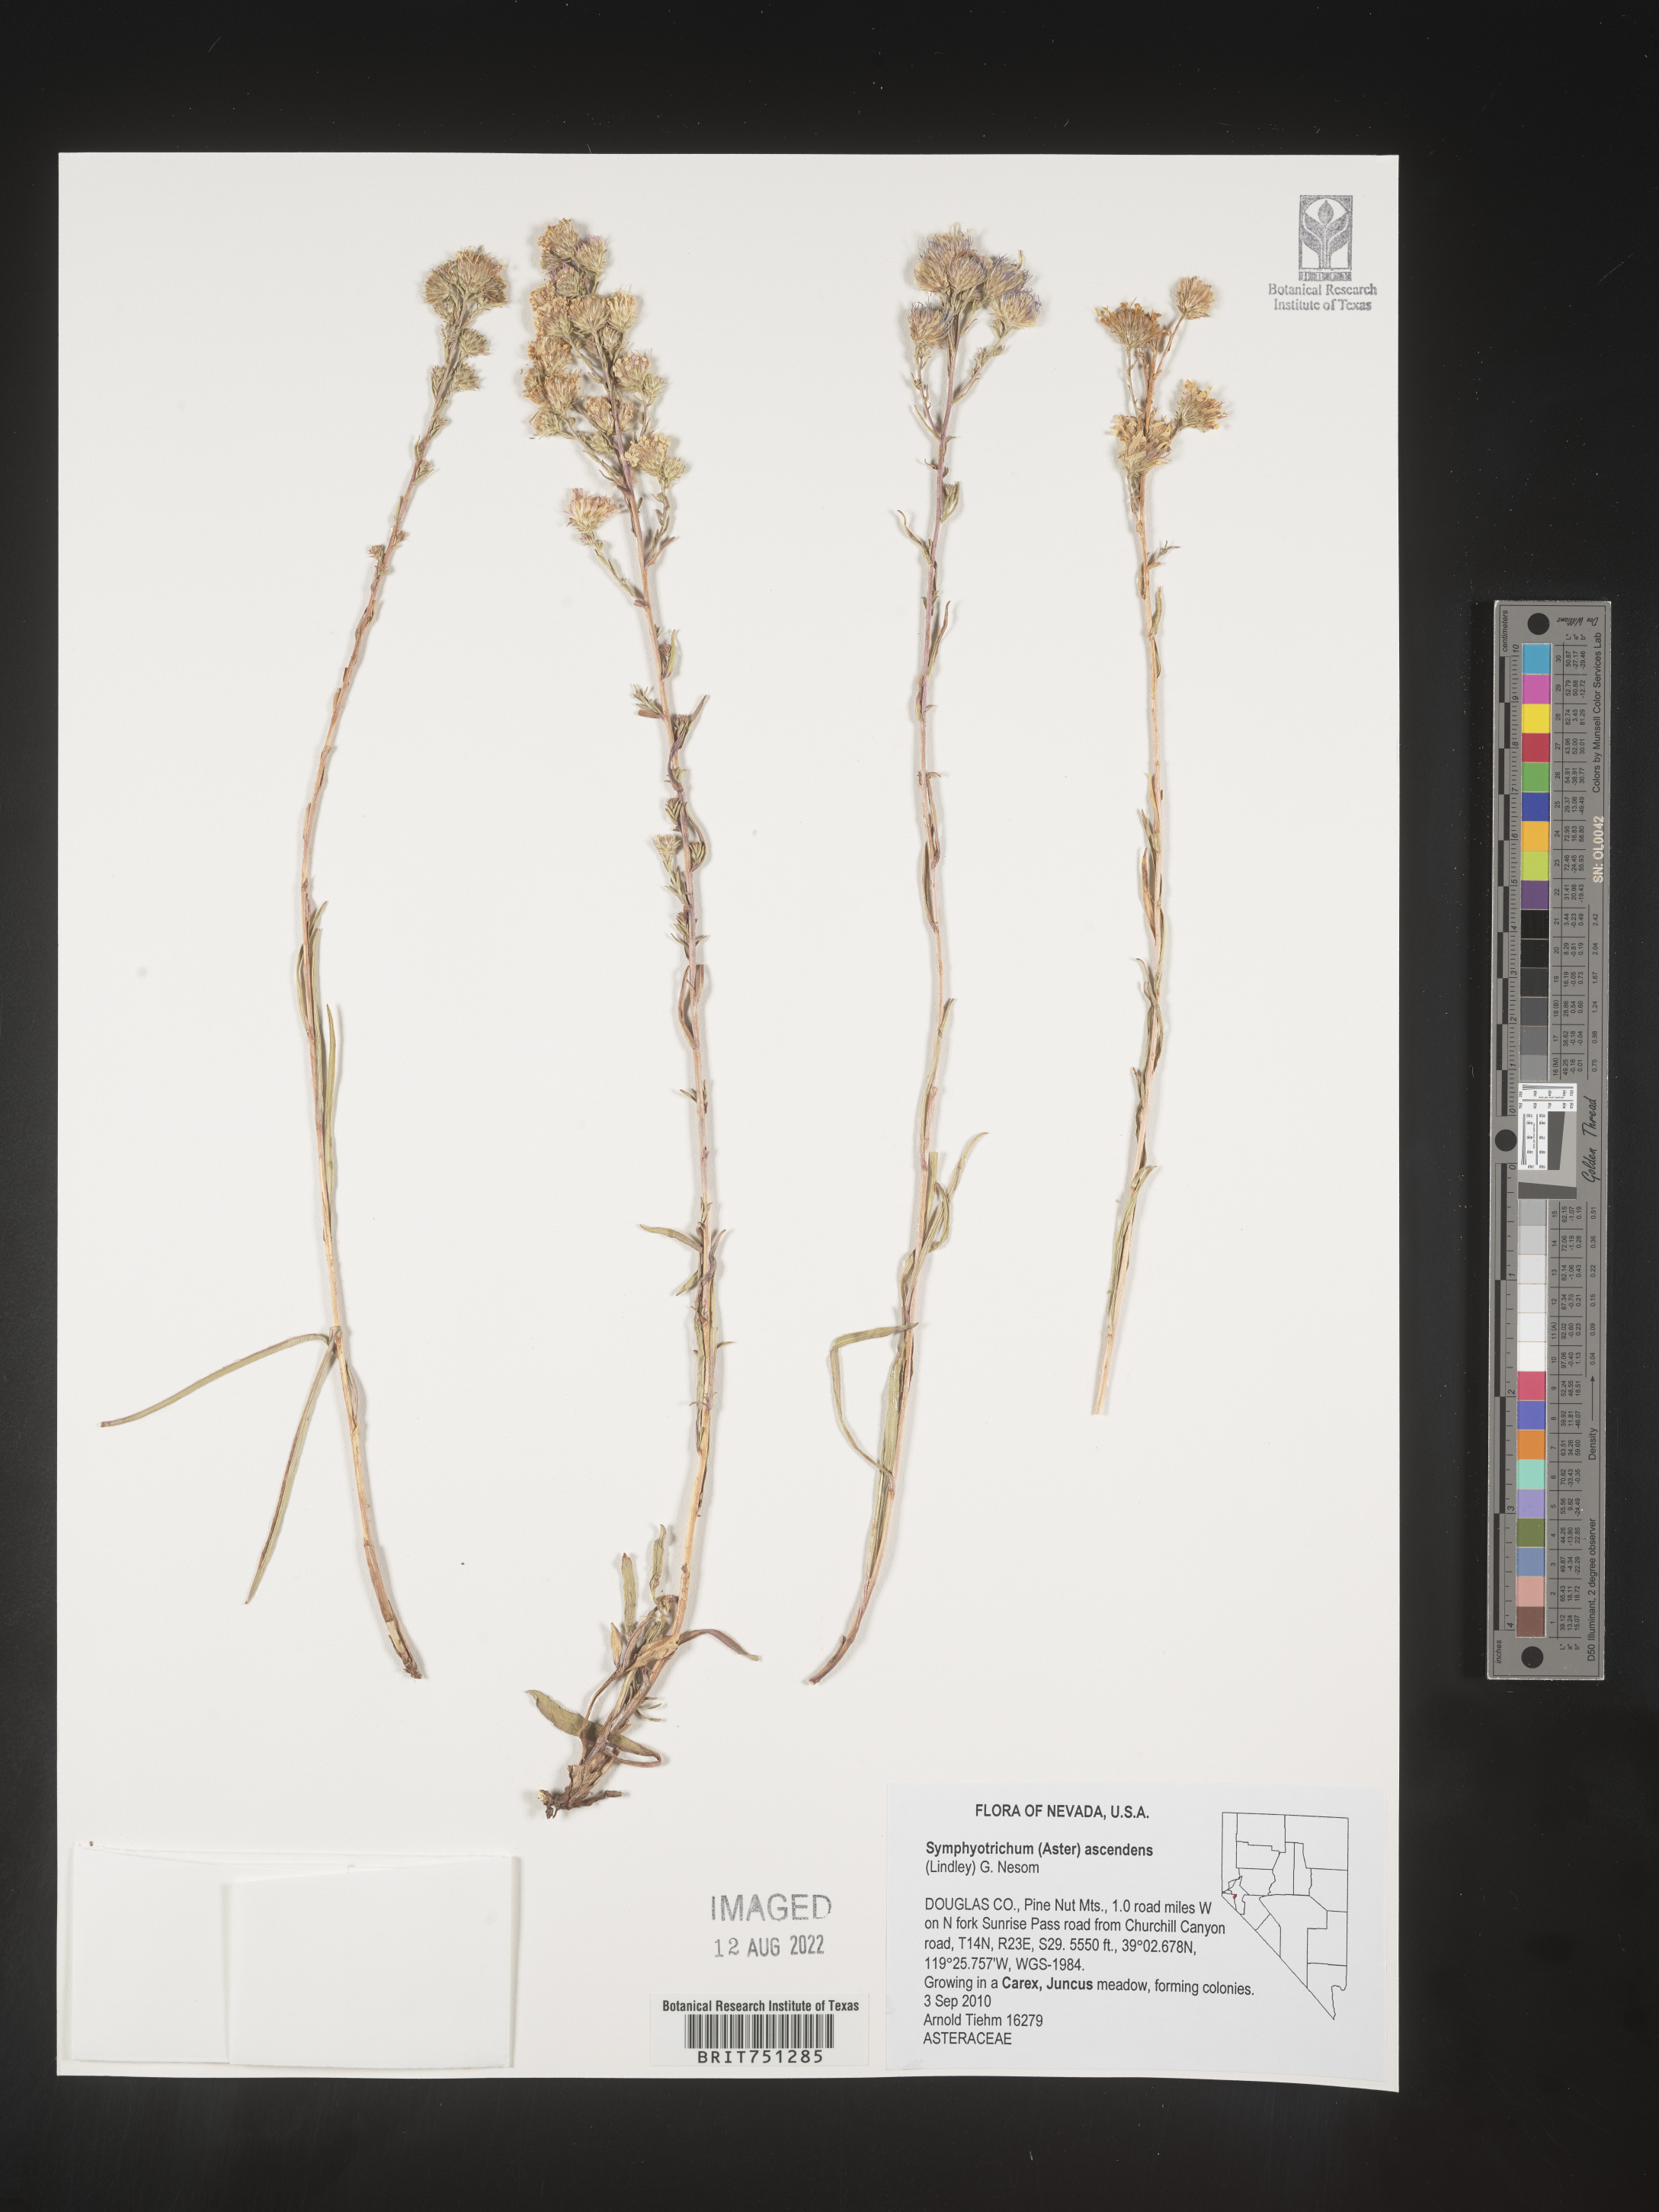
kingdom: Plantae
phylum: Tracheophyta
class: Magnoliopsida
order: Asterales
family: Asteraceae
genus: Symphyotrichum
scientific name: Symphyotrichum ascendens
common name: Intermountain aster
